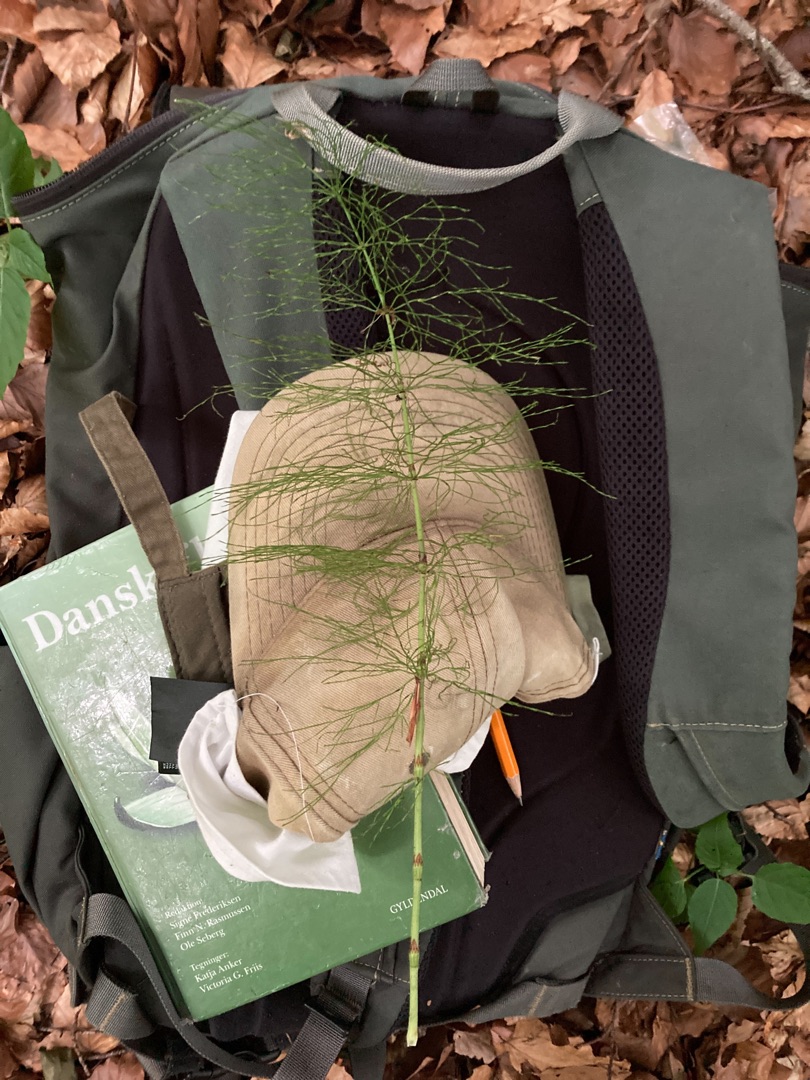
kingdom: Plantae
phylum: Tracheophyta
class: Polypodiopsida
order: Equisetales
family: Equisetaceae
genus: Equisetum
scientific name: Equisetum sylvaticum
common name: Skov-padderok
